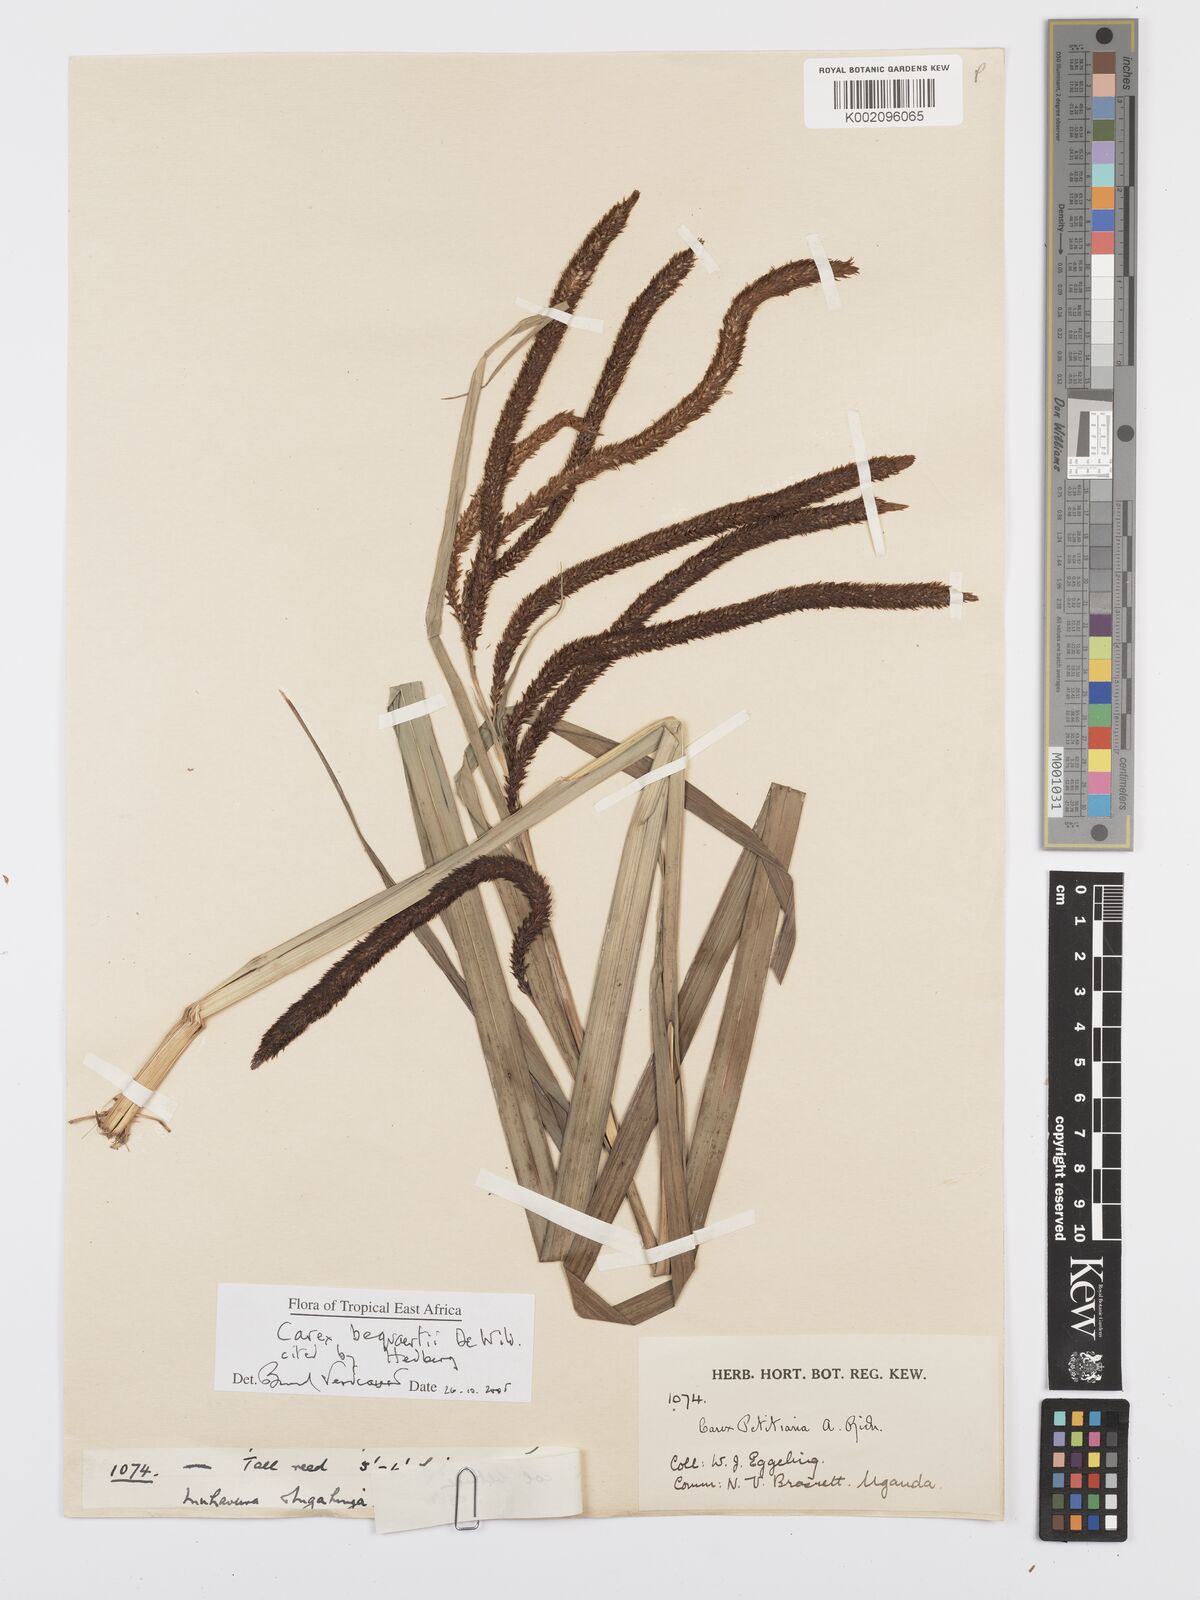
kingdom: Plantae
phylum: Tracheophyta
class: Liliopsida
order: Poales
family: Cyperaceae
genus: Carex
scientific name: Carex bequaertii
